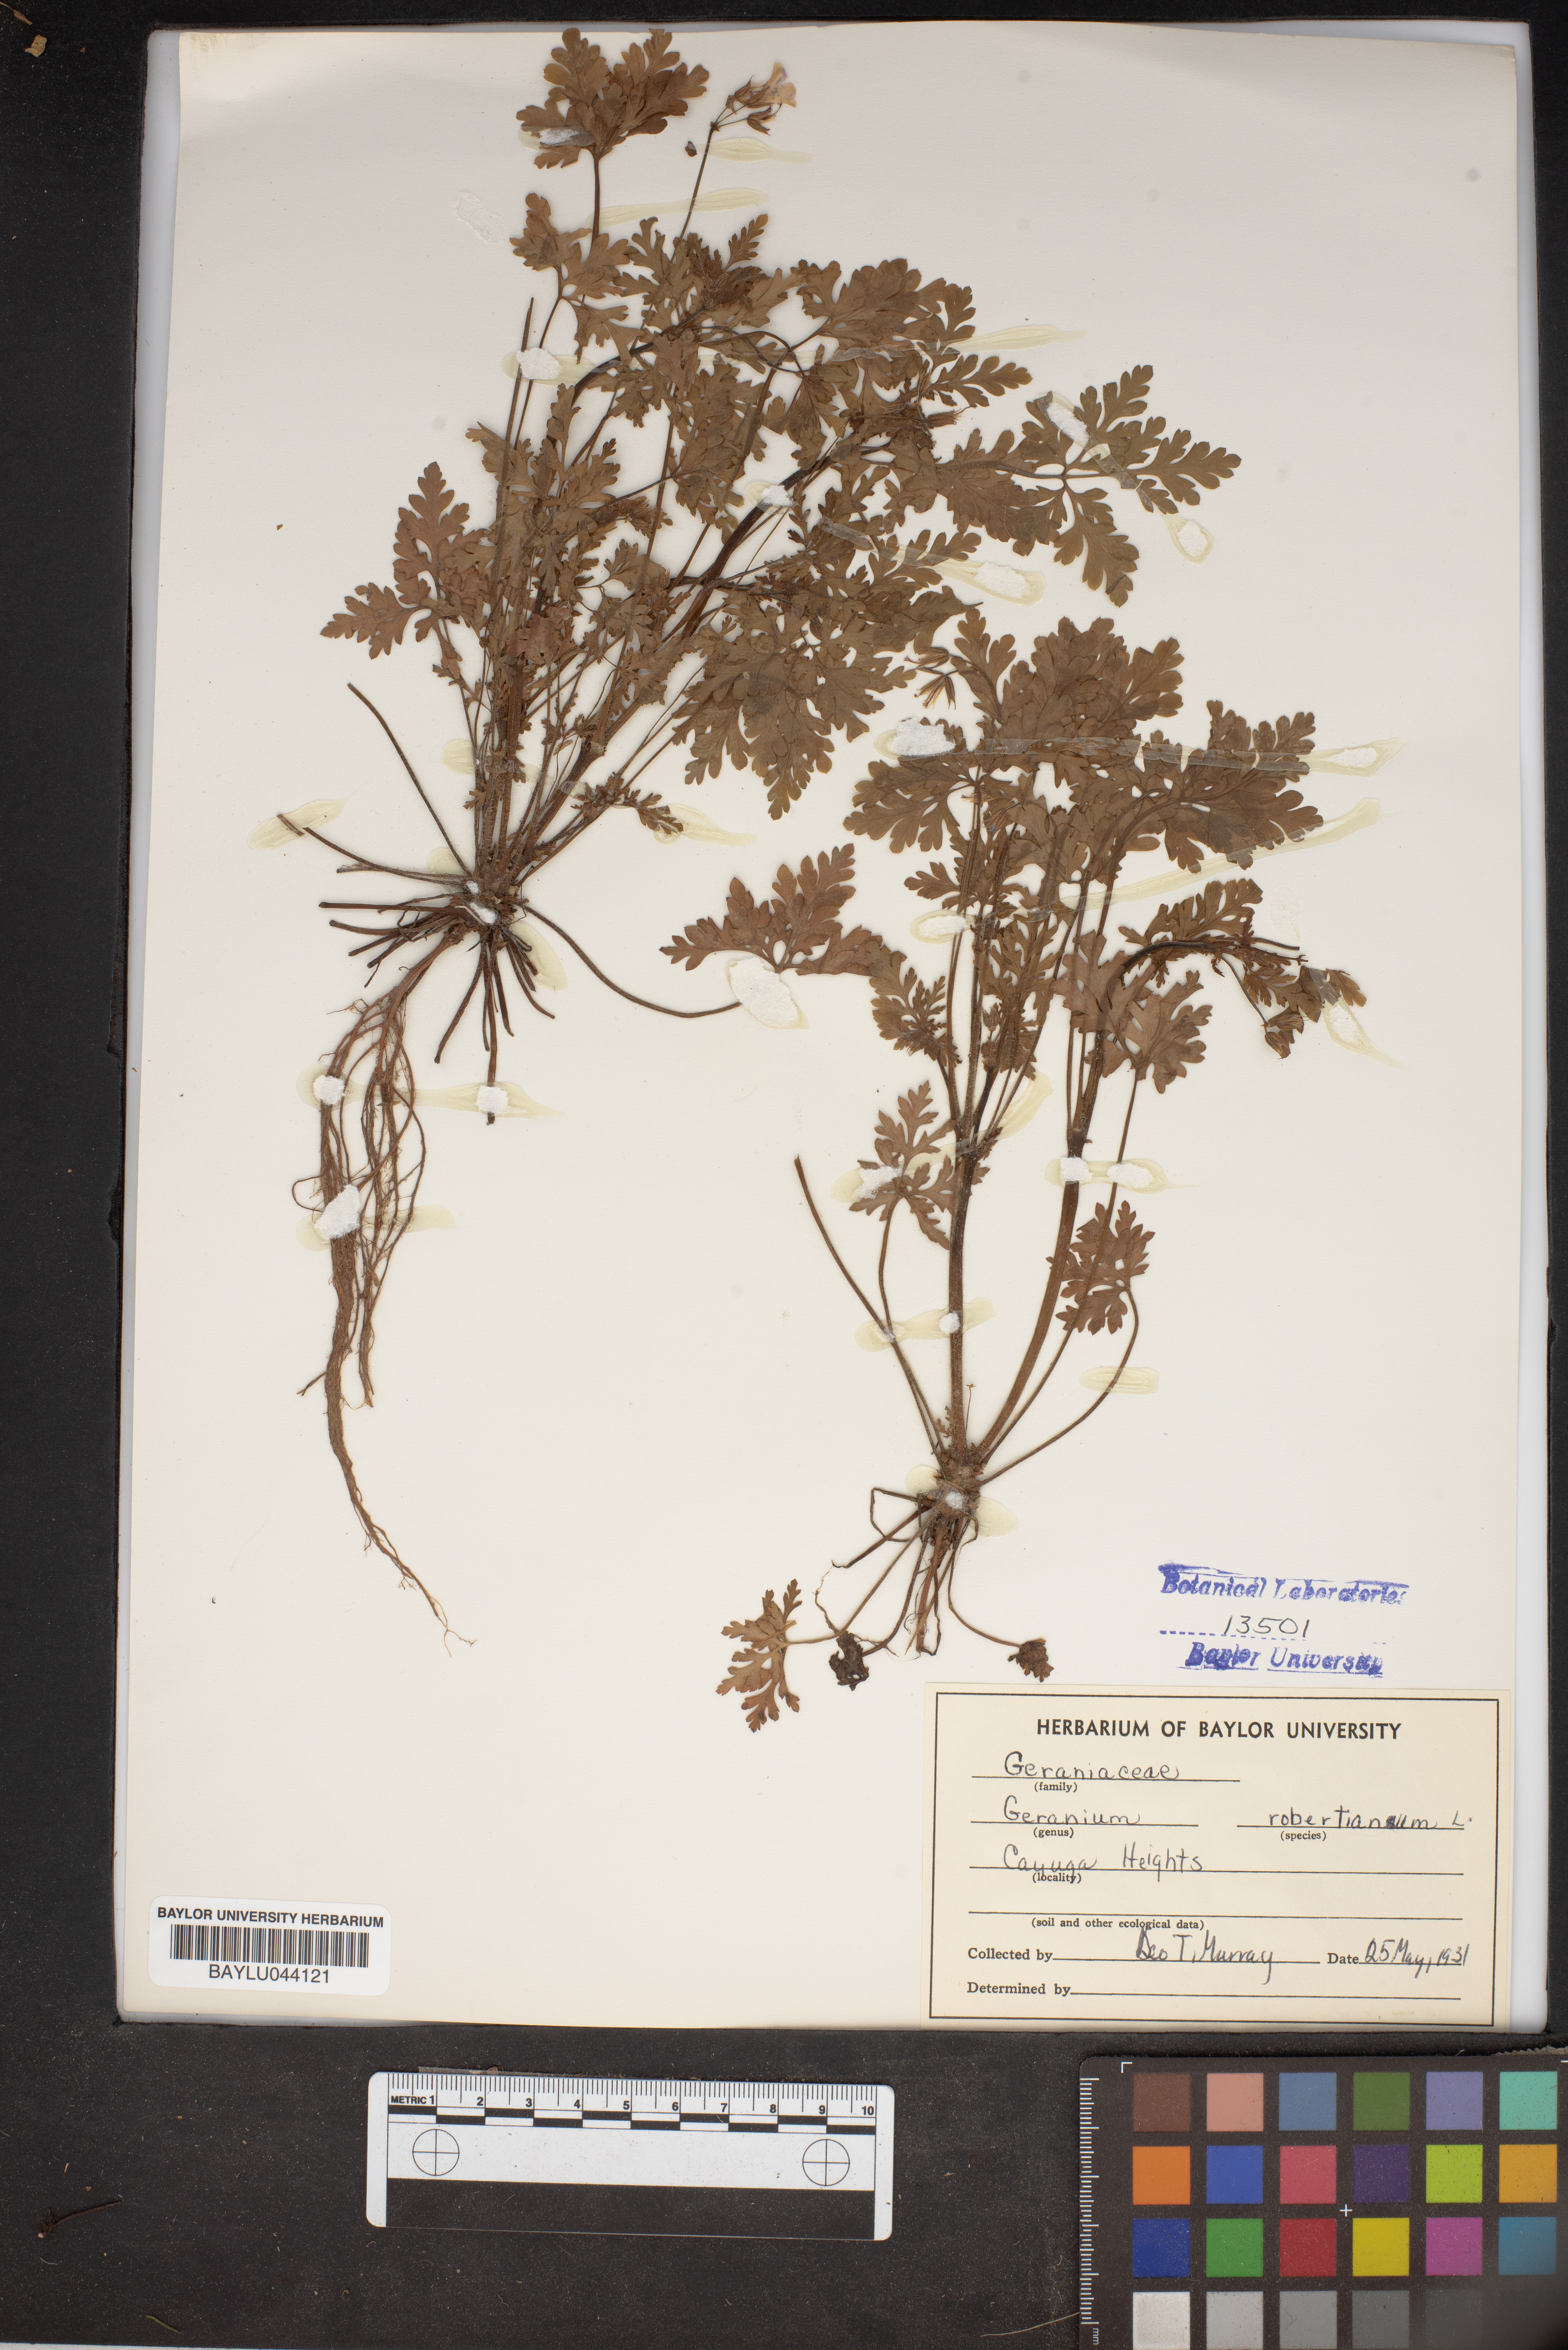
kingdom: Plantae
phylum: Tracheophyta
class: Magnoliopsida
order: Geraniales
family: Geraniaceae
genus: Geranium
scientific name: Geranium robertianum
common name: Herb-robert
